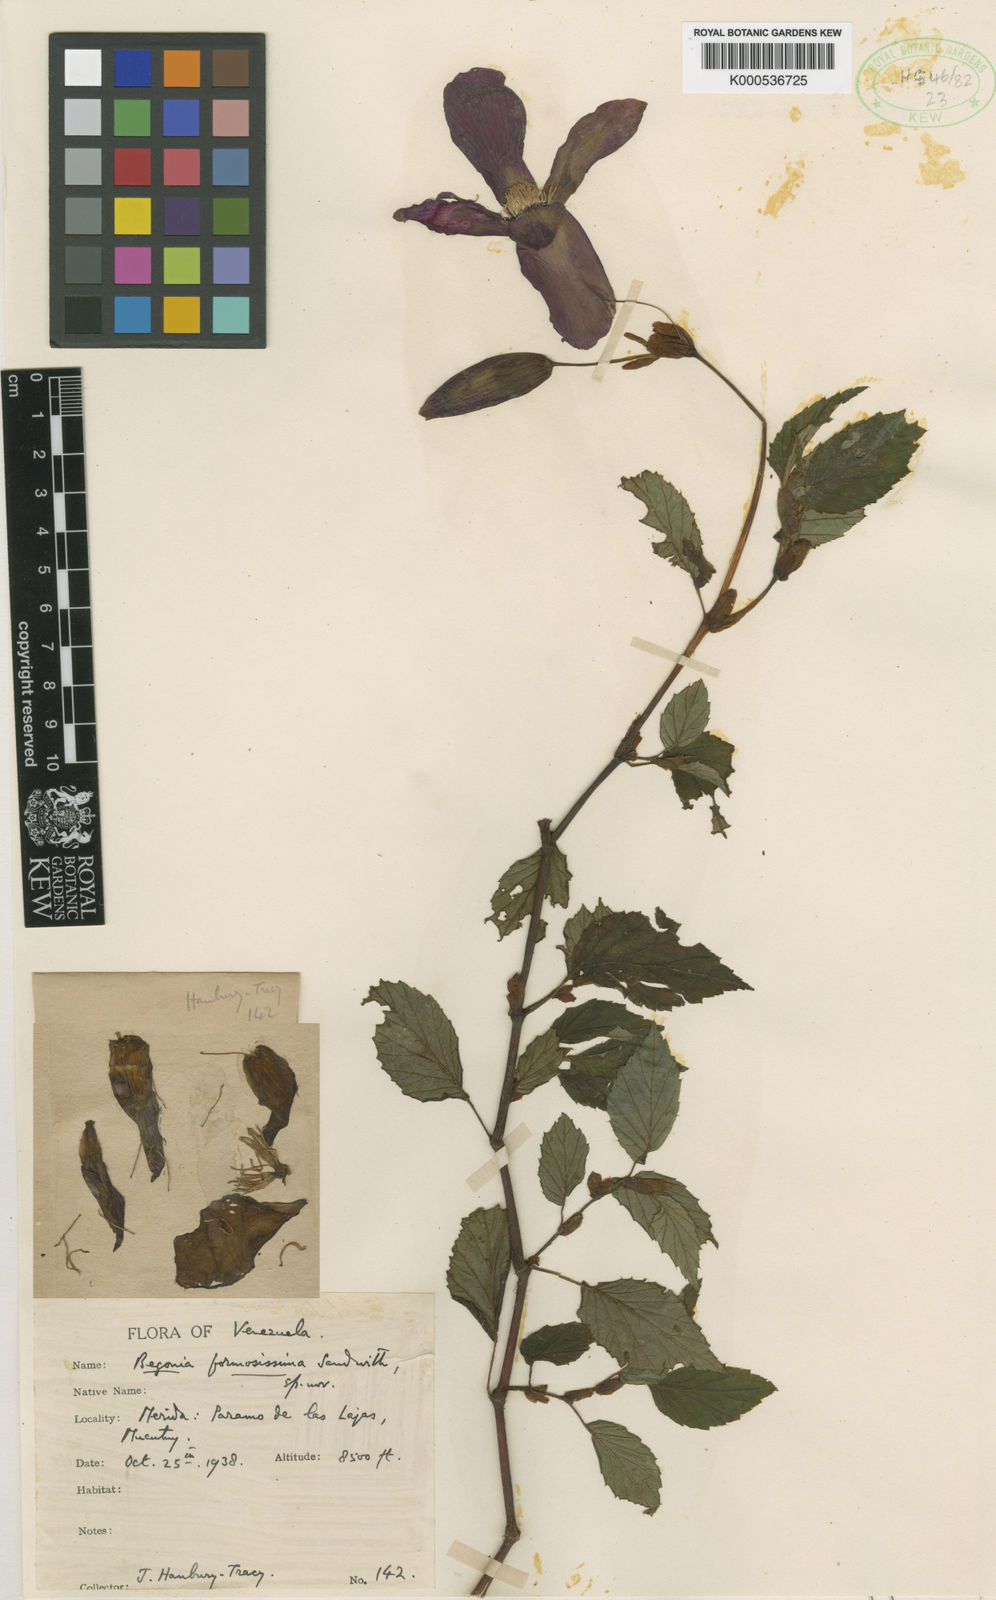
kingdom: Plantae
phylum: Tracheophyta
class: Magnoliopsida
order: Cucurbitales
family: Begoniaceae
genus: Begonia
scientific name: Begonia formosissima
